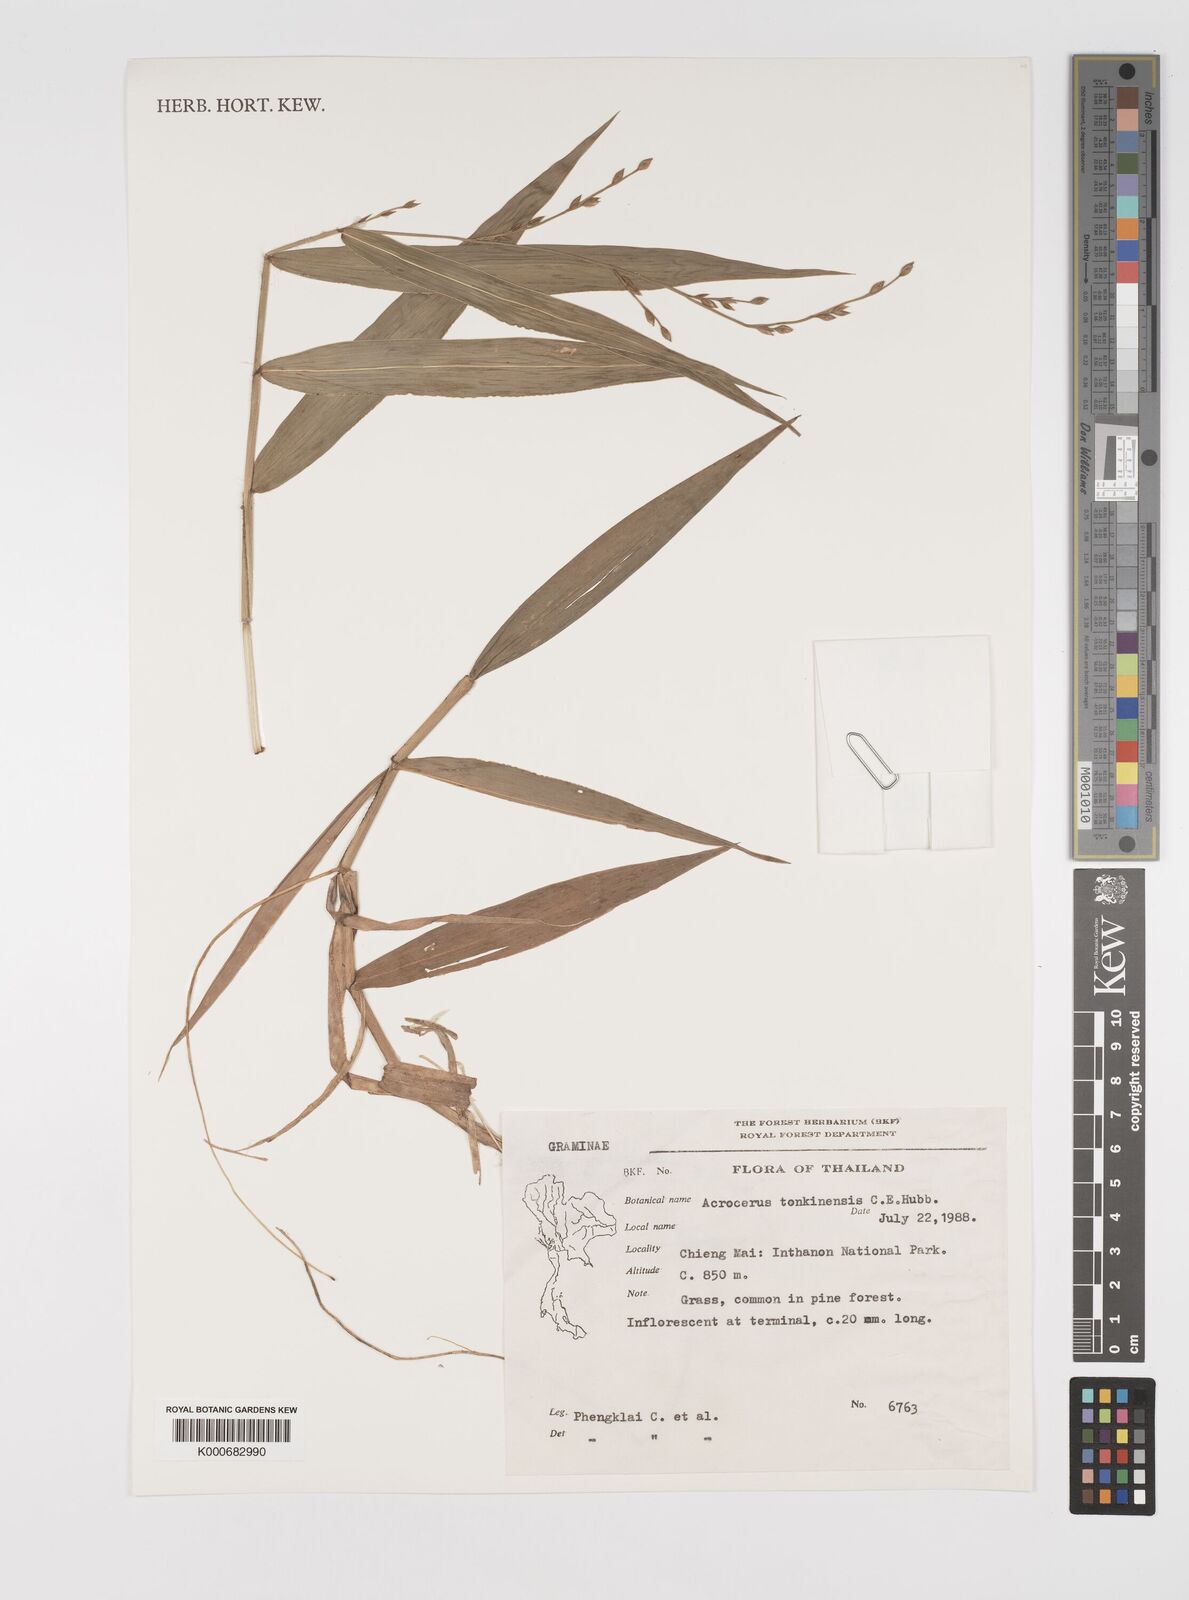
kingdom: Plantae
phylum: Tracheophyta
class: Liliopsida
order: Poales
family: Poaceae
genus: Acroceras
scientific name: Acroceras
